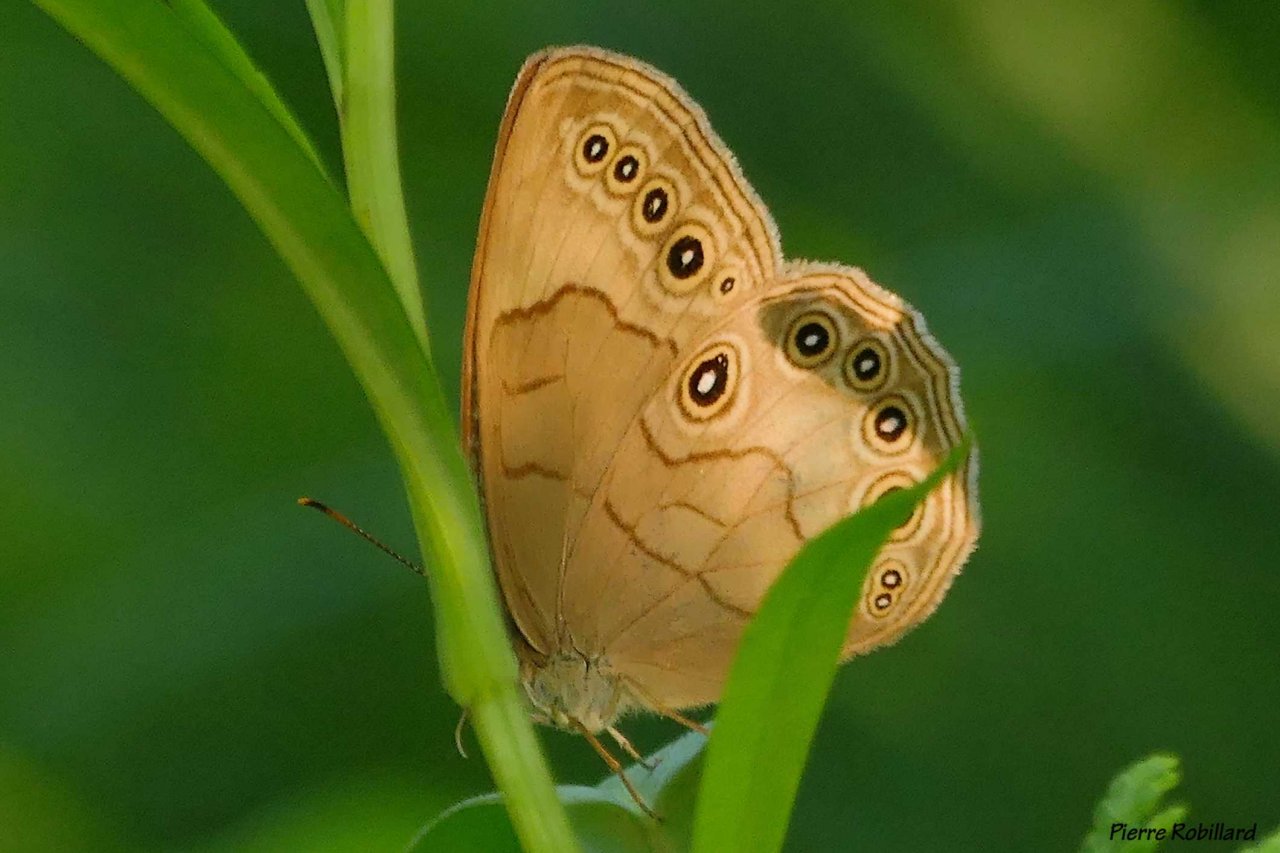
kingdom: Animalia
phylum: Arthropoda
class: Insecta
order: Lepidoptera
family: Nymphalidae
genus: Lethe
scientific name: Lethe eurydice
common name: Appalachian Eyed Brown
